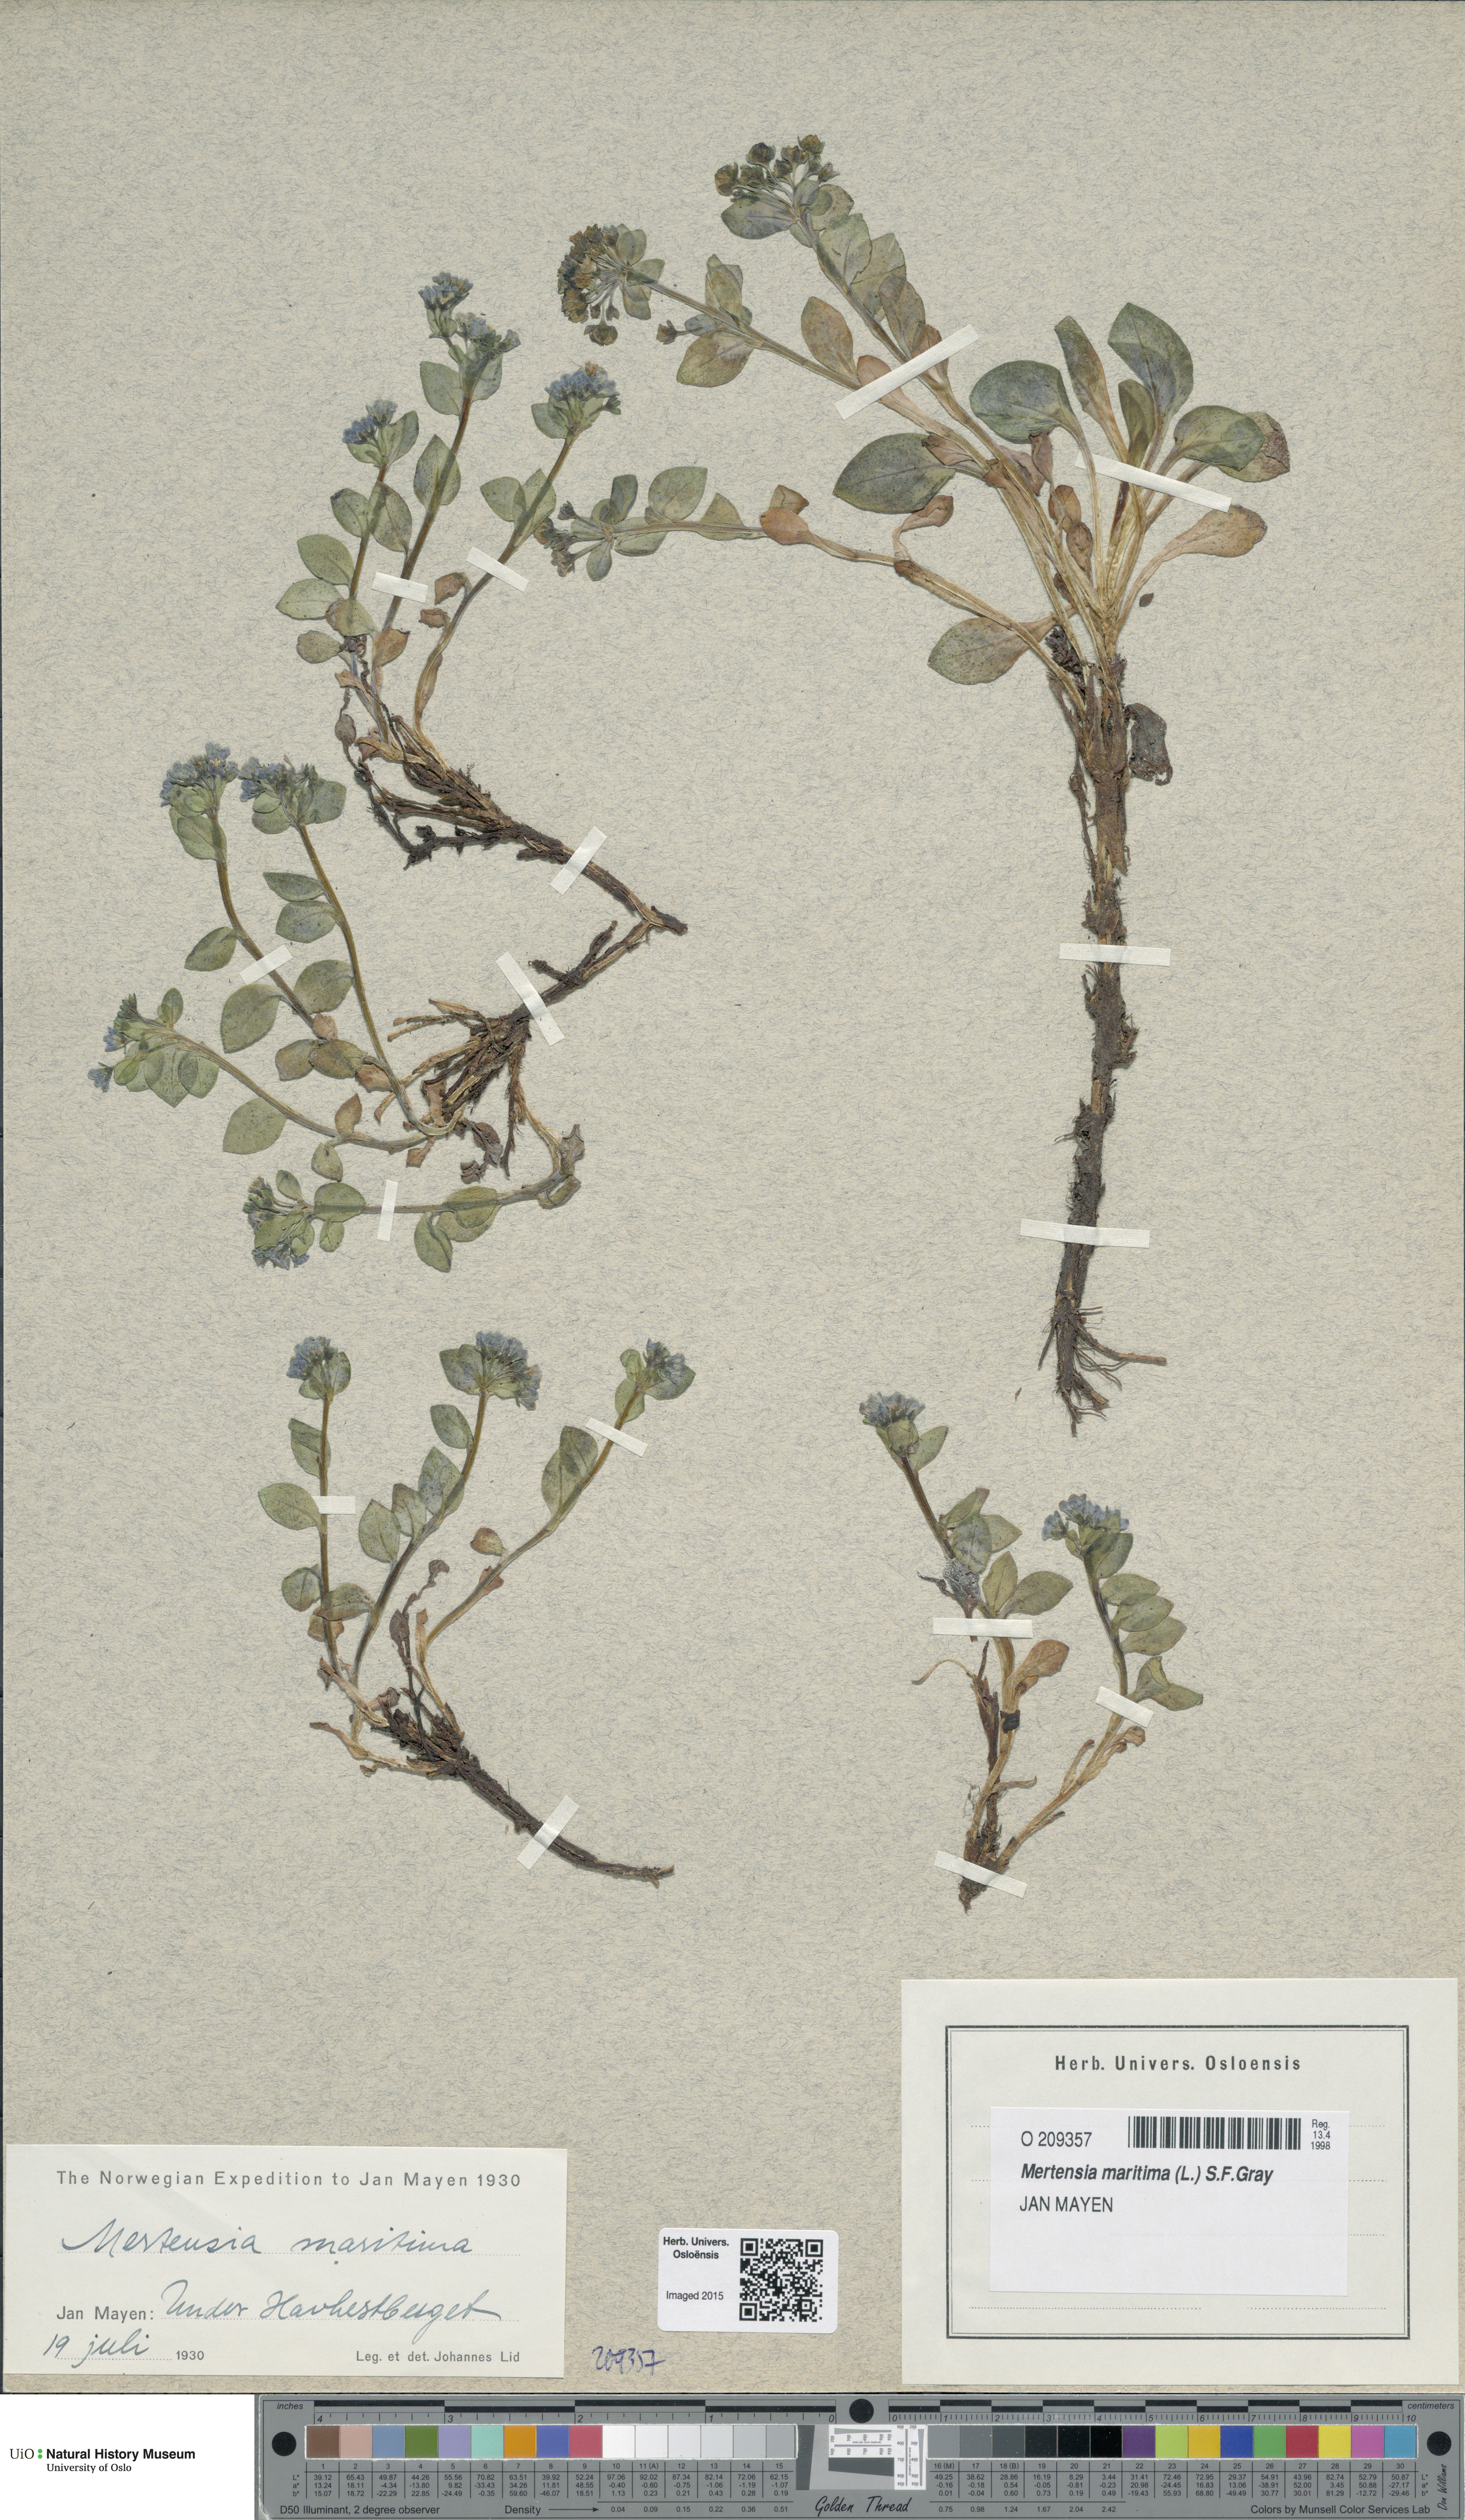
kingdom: Plantae
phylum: Tracheophyta
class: Magnoliopsida
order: Boraginales
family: Boraginaceae
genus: Mertensia
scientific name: Mertensia maritima
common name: Oysterplant
